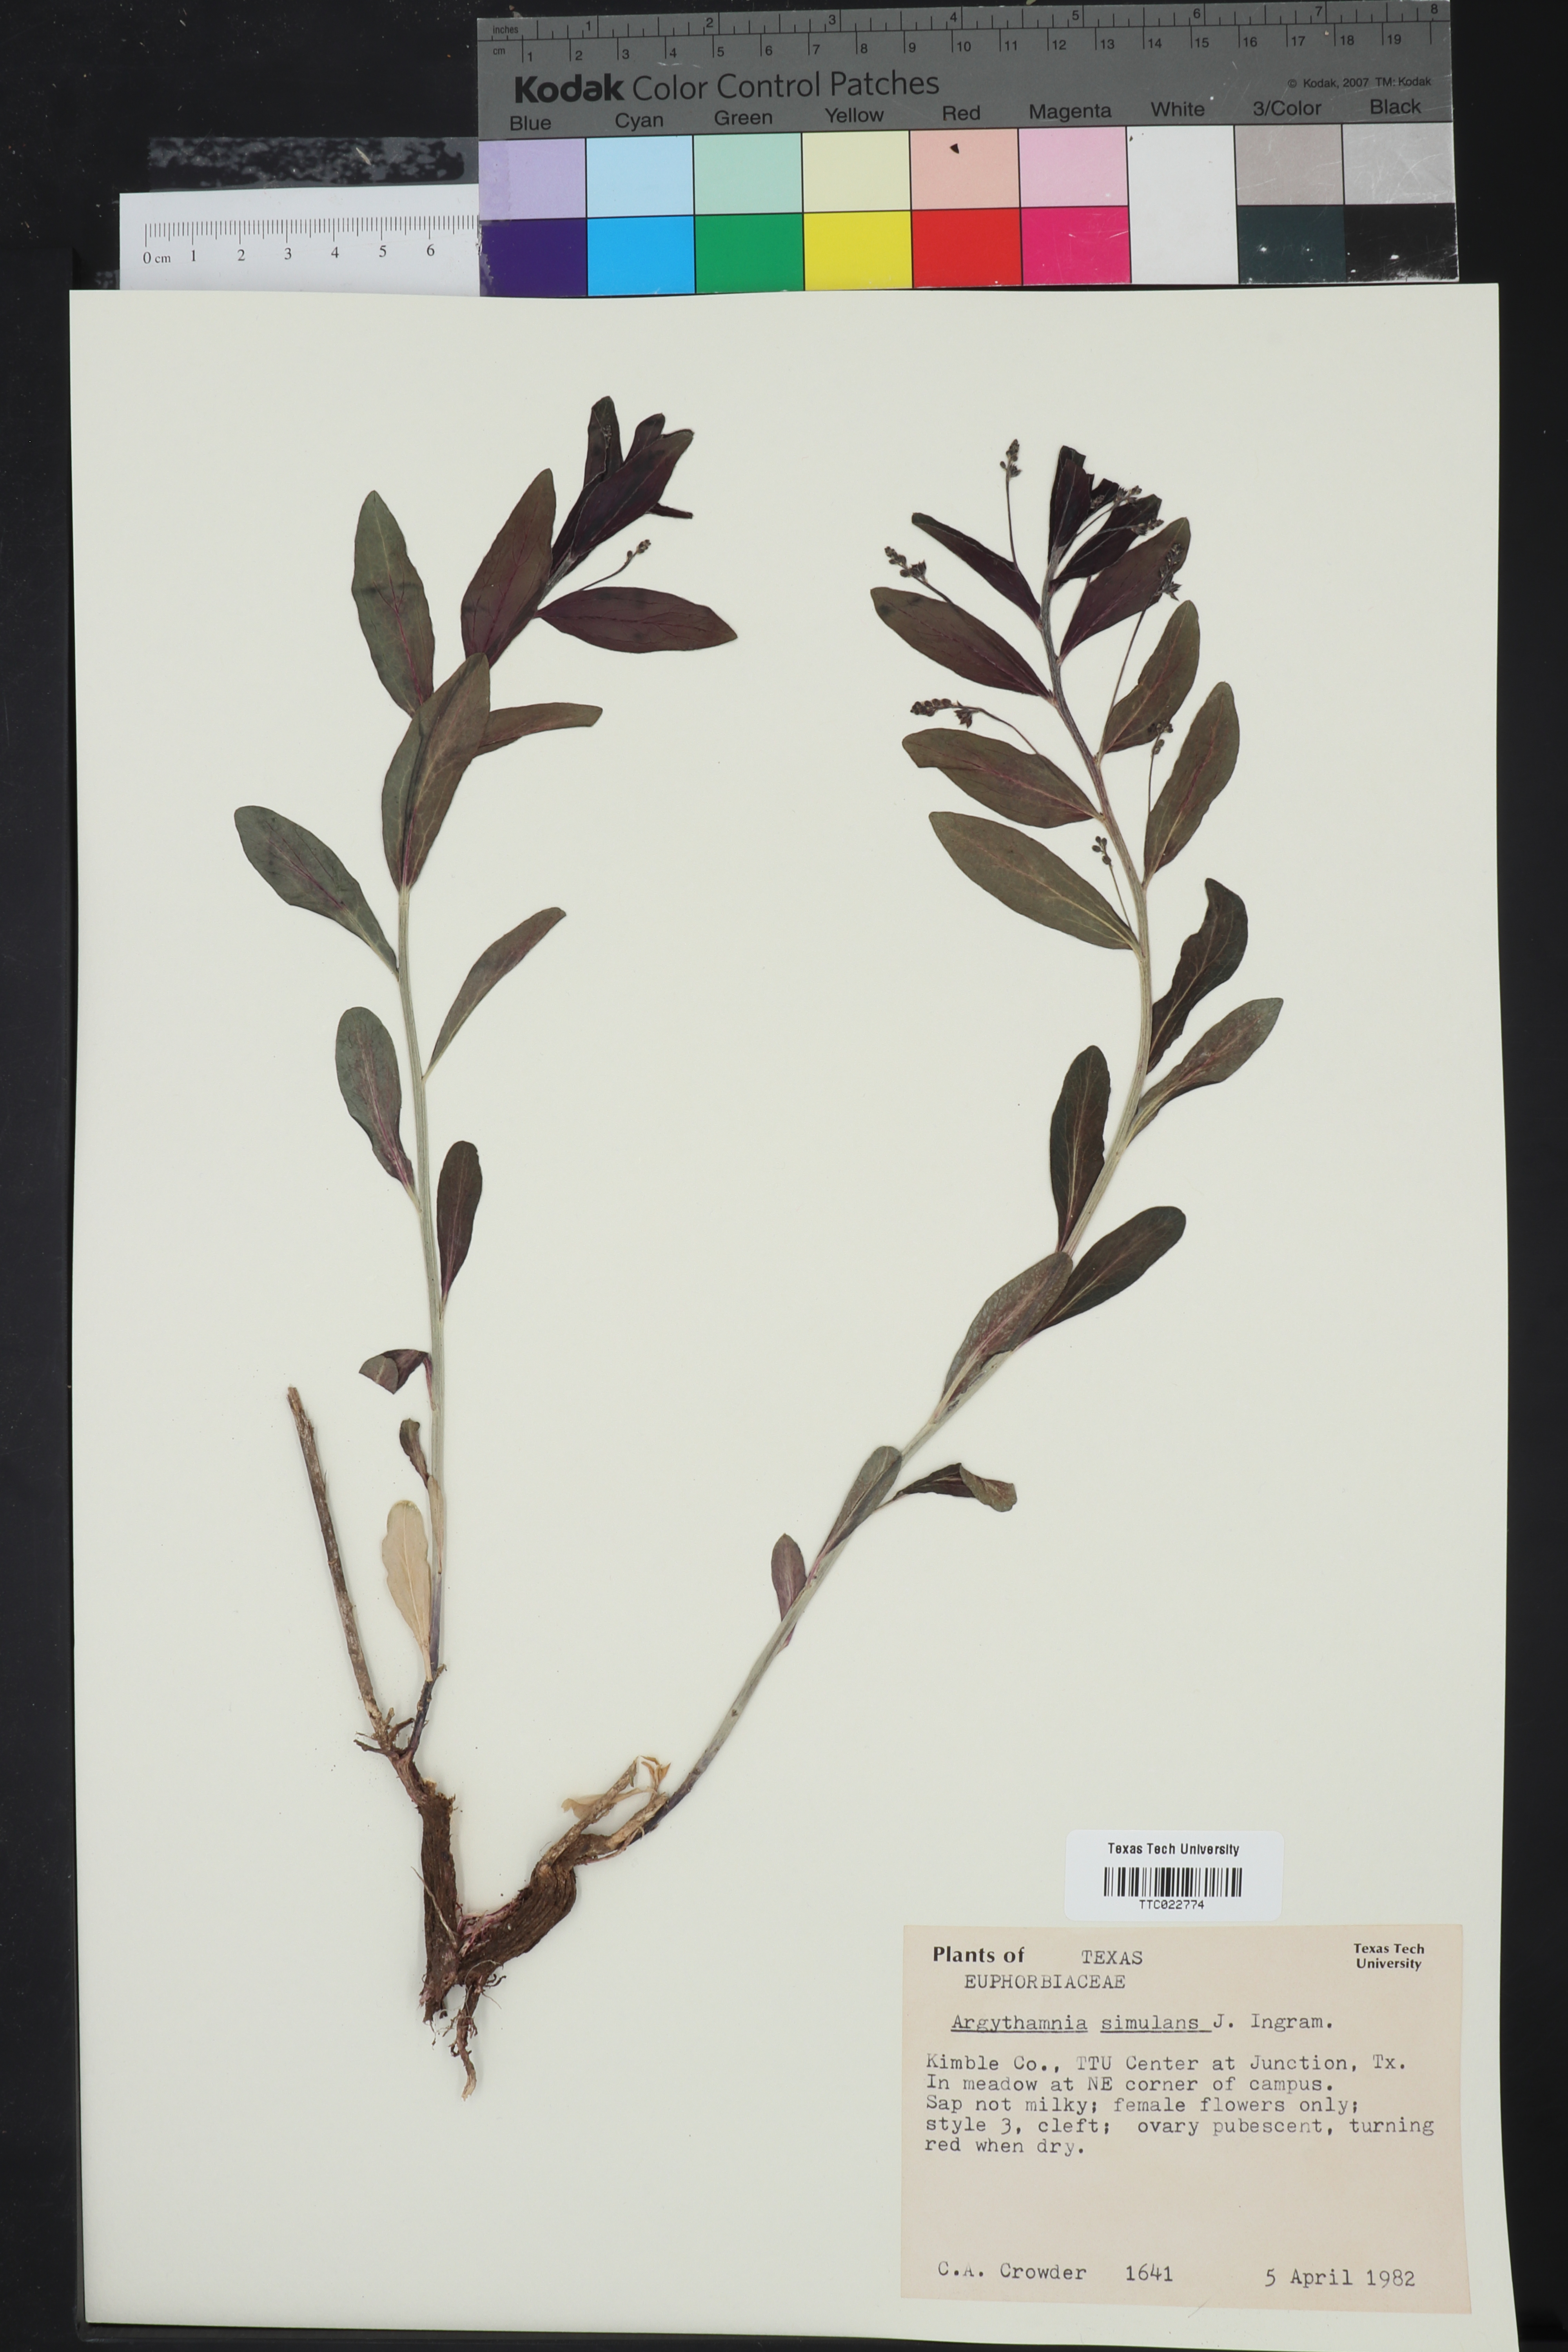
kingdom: Plantae
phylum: Tracheophyta
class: Magnoliopsida
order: Malpighiales
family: Euphorbiaceae
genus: Ditaxis
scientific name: Ditaxis simulans
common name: Plateau silverbush
